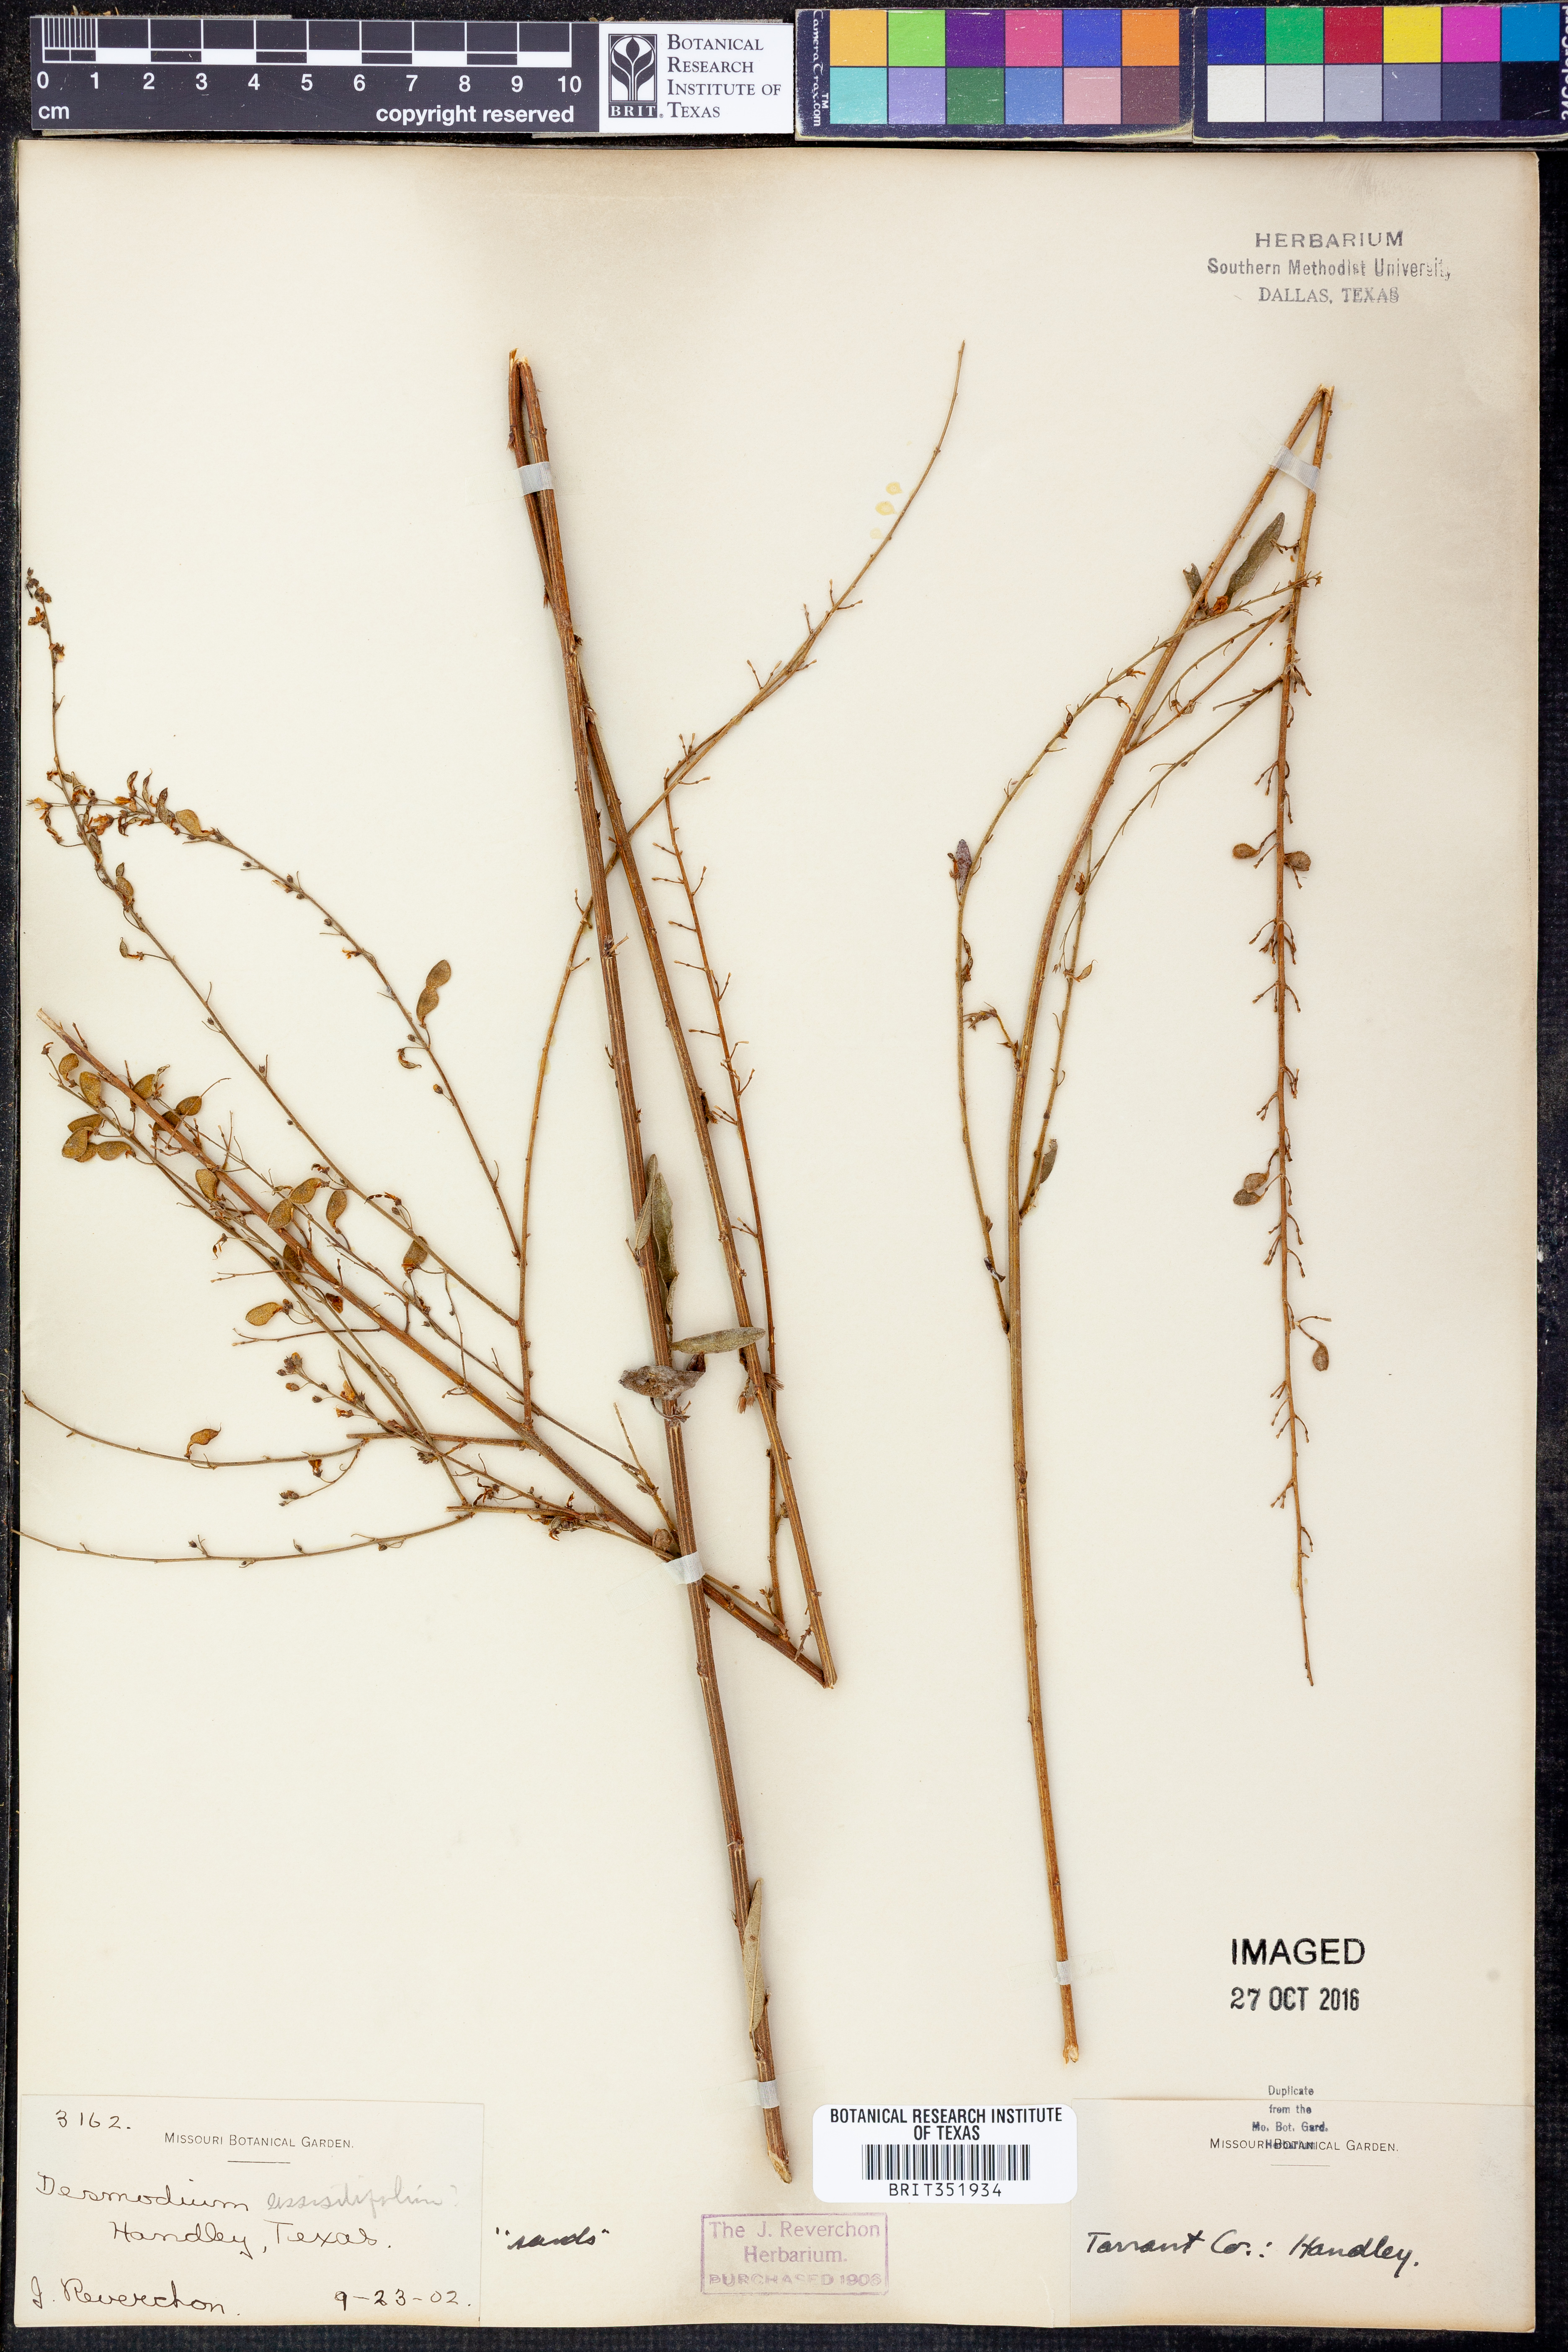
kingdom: Plantae
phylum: Tracheophyta
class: Magnoliopsida
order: Fabales
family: Fabaceae
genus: Desmodium
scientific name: Desmodium sessilifolium
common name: Sessile tick-clover
